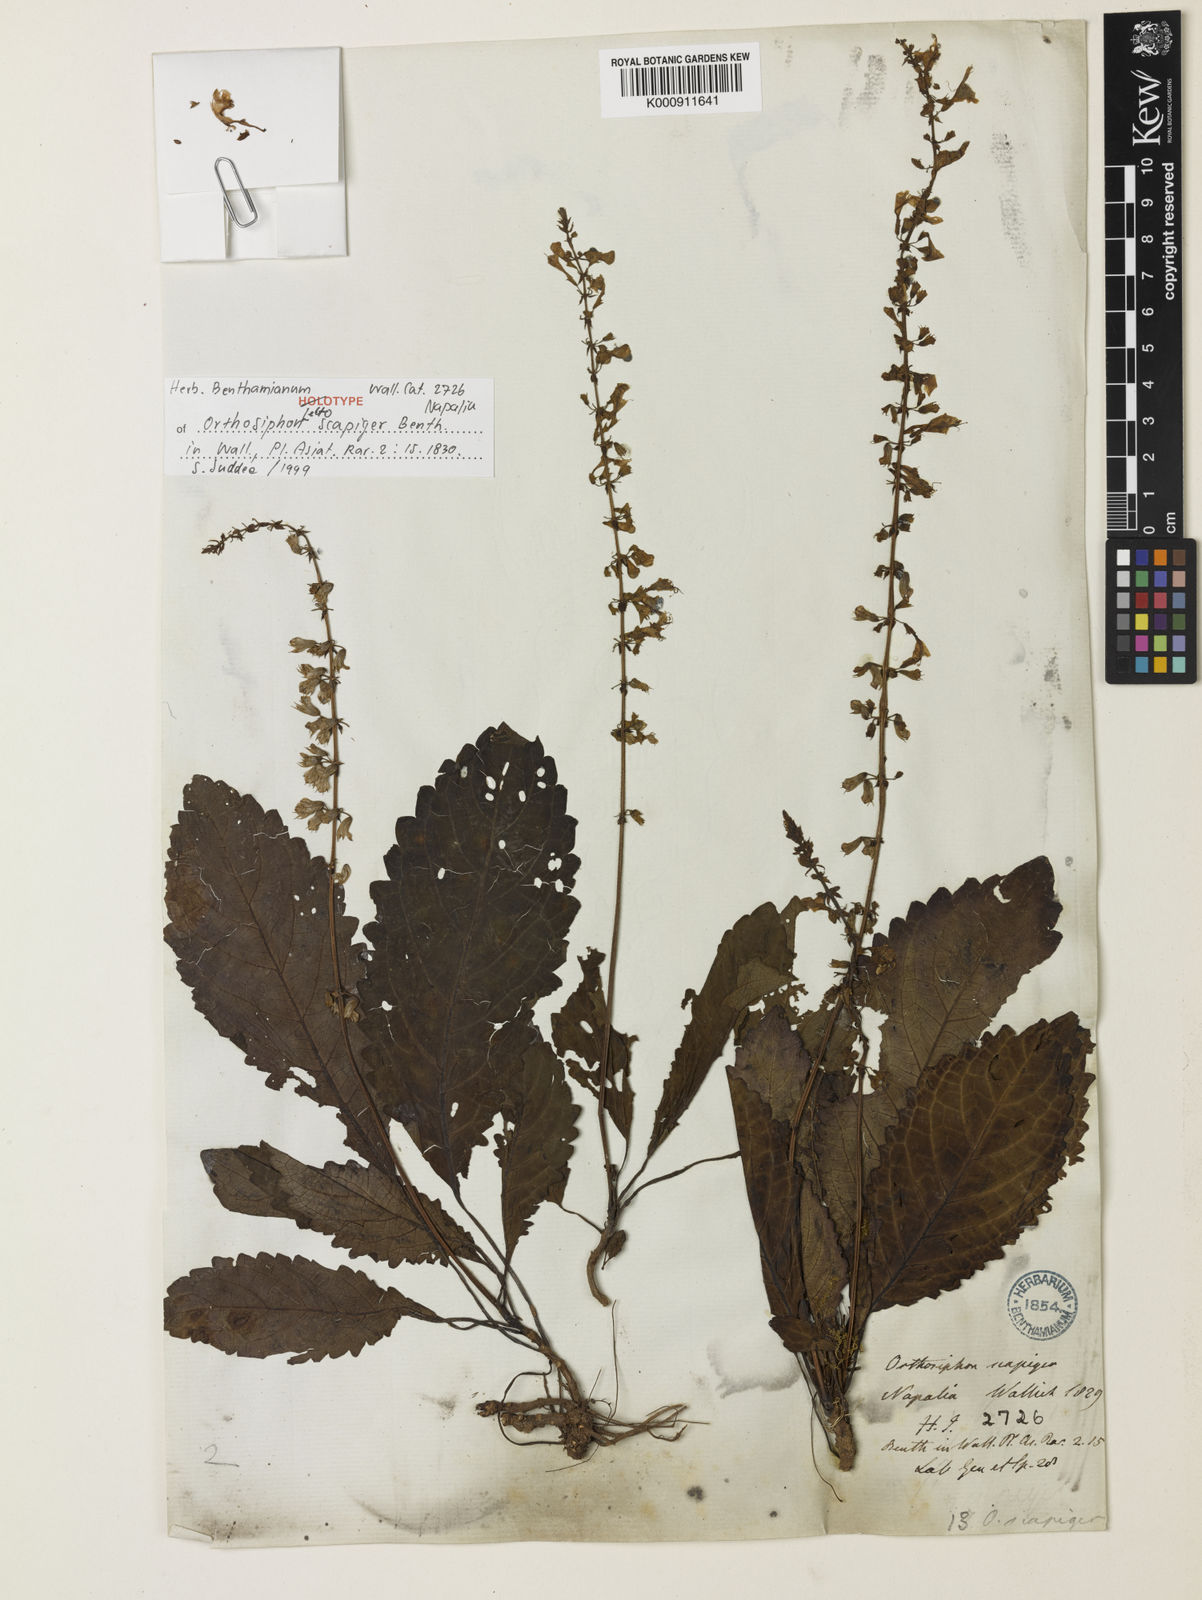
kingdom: Plantae
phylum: Tracheophyta
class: Magnoliopsida
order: Lamiales
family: Lamiaceae
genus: Orthosiphon
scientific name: Orthosiphon scapiger
